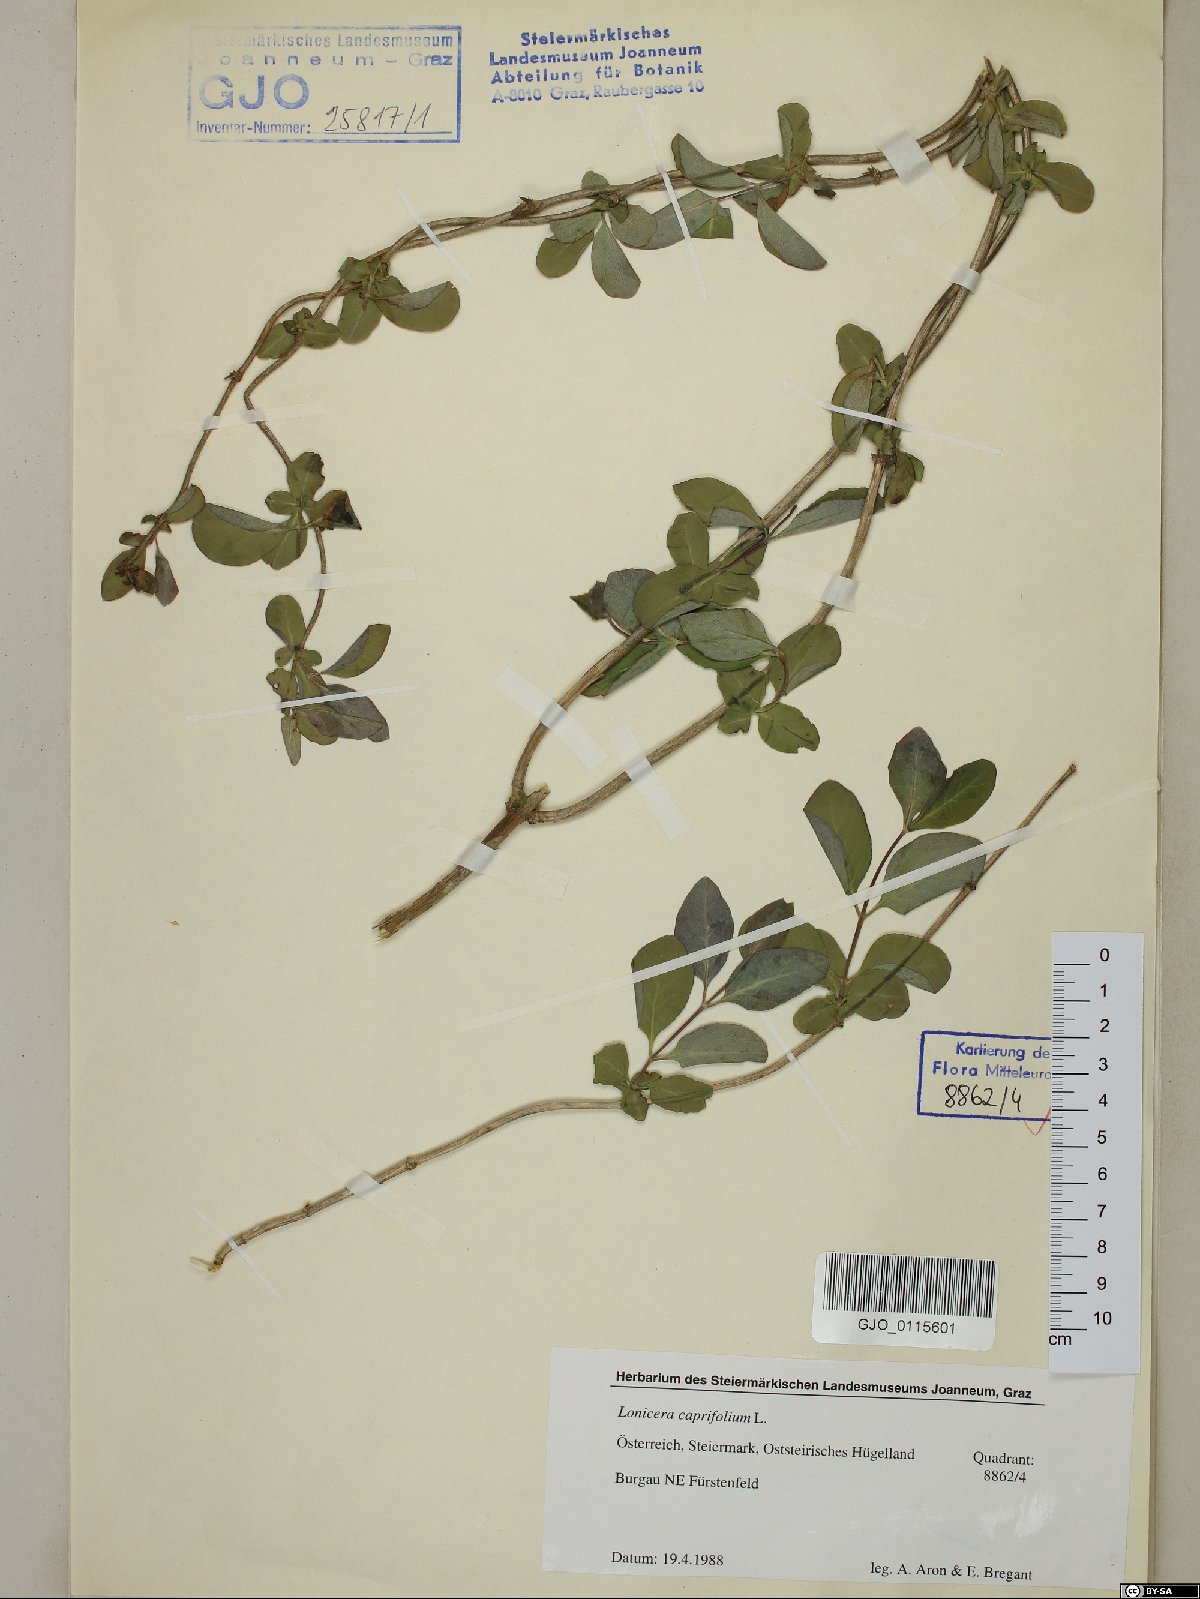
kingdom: Plantae
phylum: Tracheophyta
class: Magnoliopsida
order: Dipsacales
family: Caprifoliaceae
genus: Lonicera
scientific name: Lonicera caprifolium
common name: Perfoliate honeysuckle
